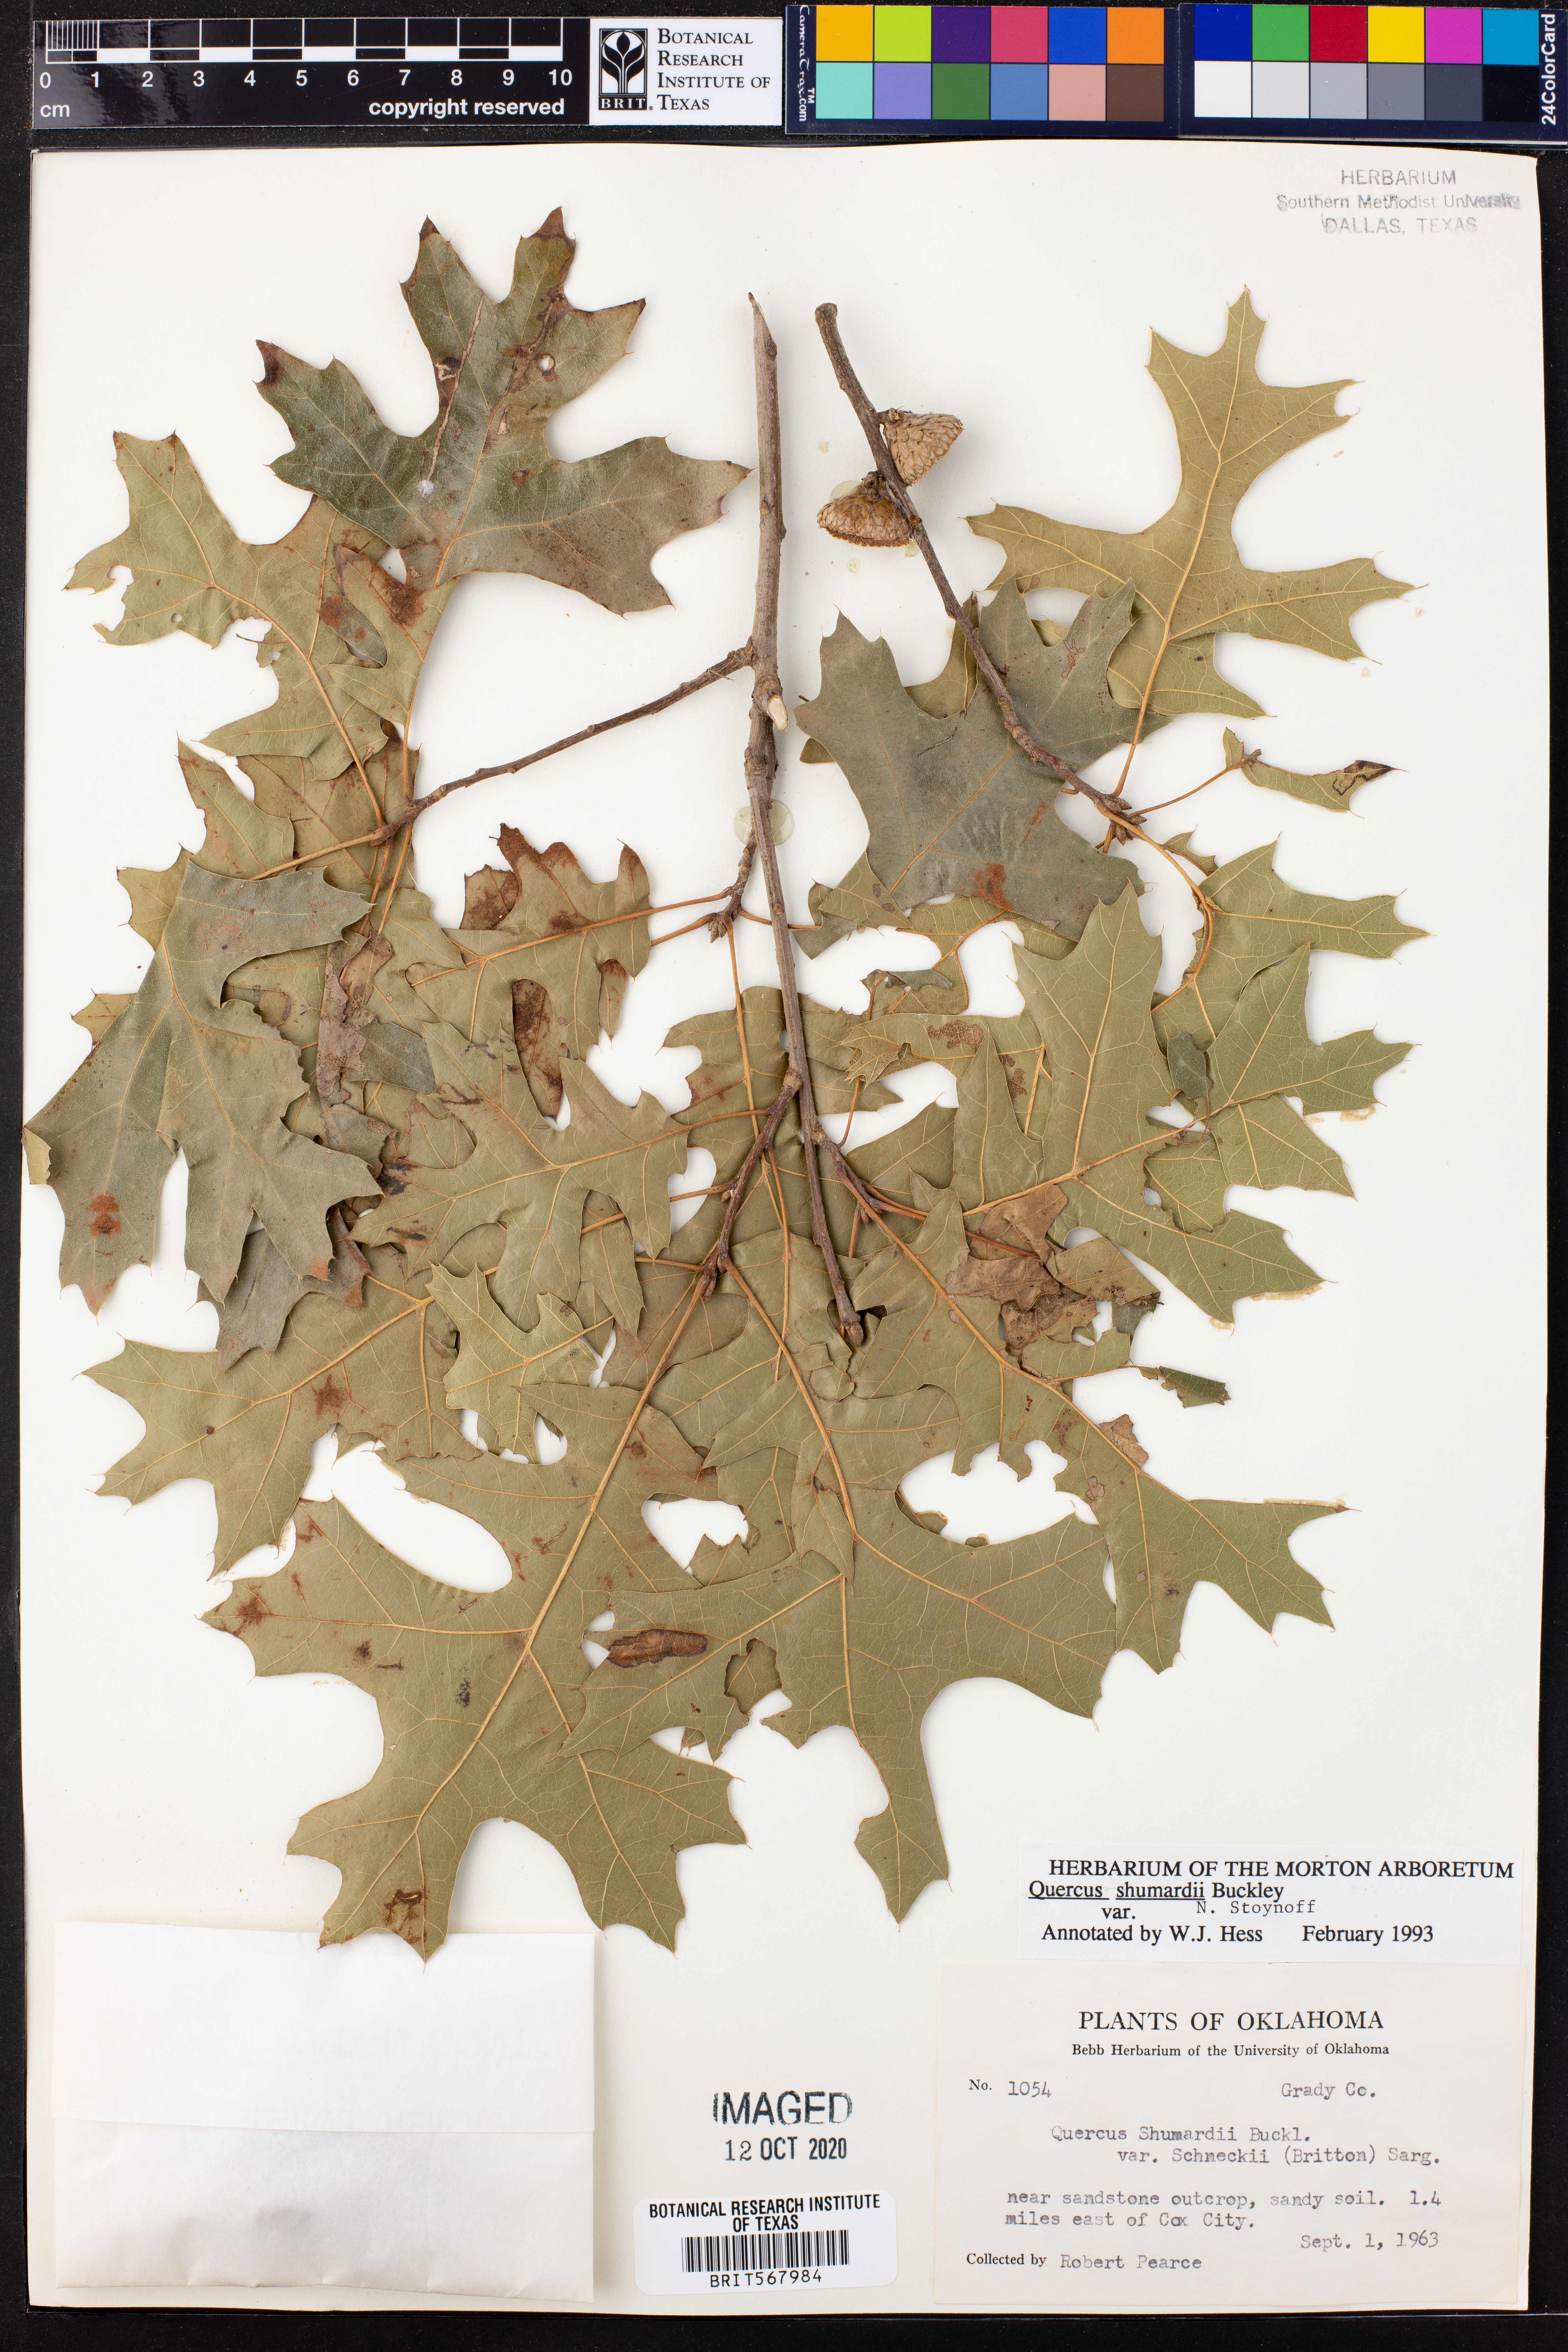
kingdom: Plantae
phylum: Tracheophyta
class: Magnoliopsida
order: Fagales
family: Fagaceae
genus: Quercus
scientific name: Quercus shumardii
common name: Shumard oak
